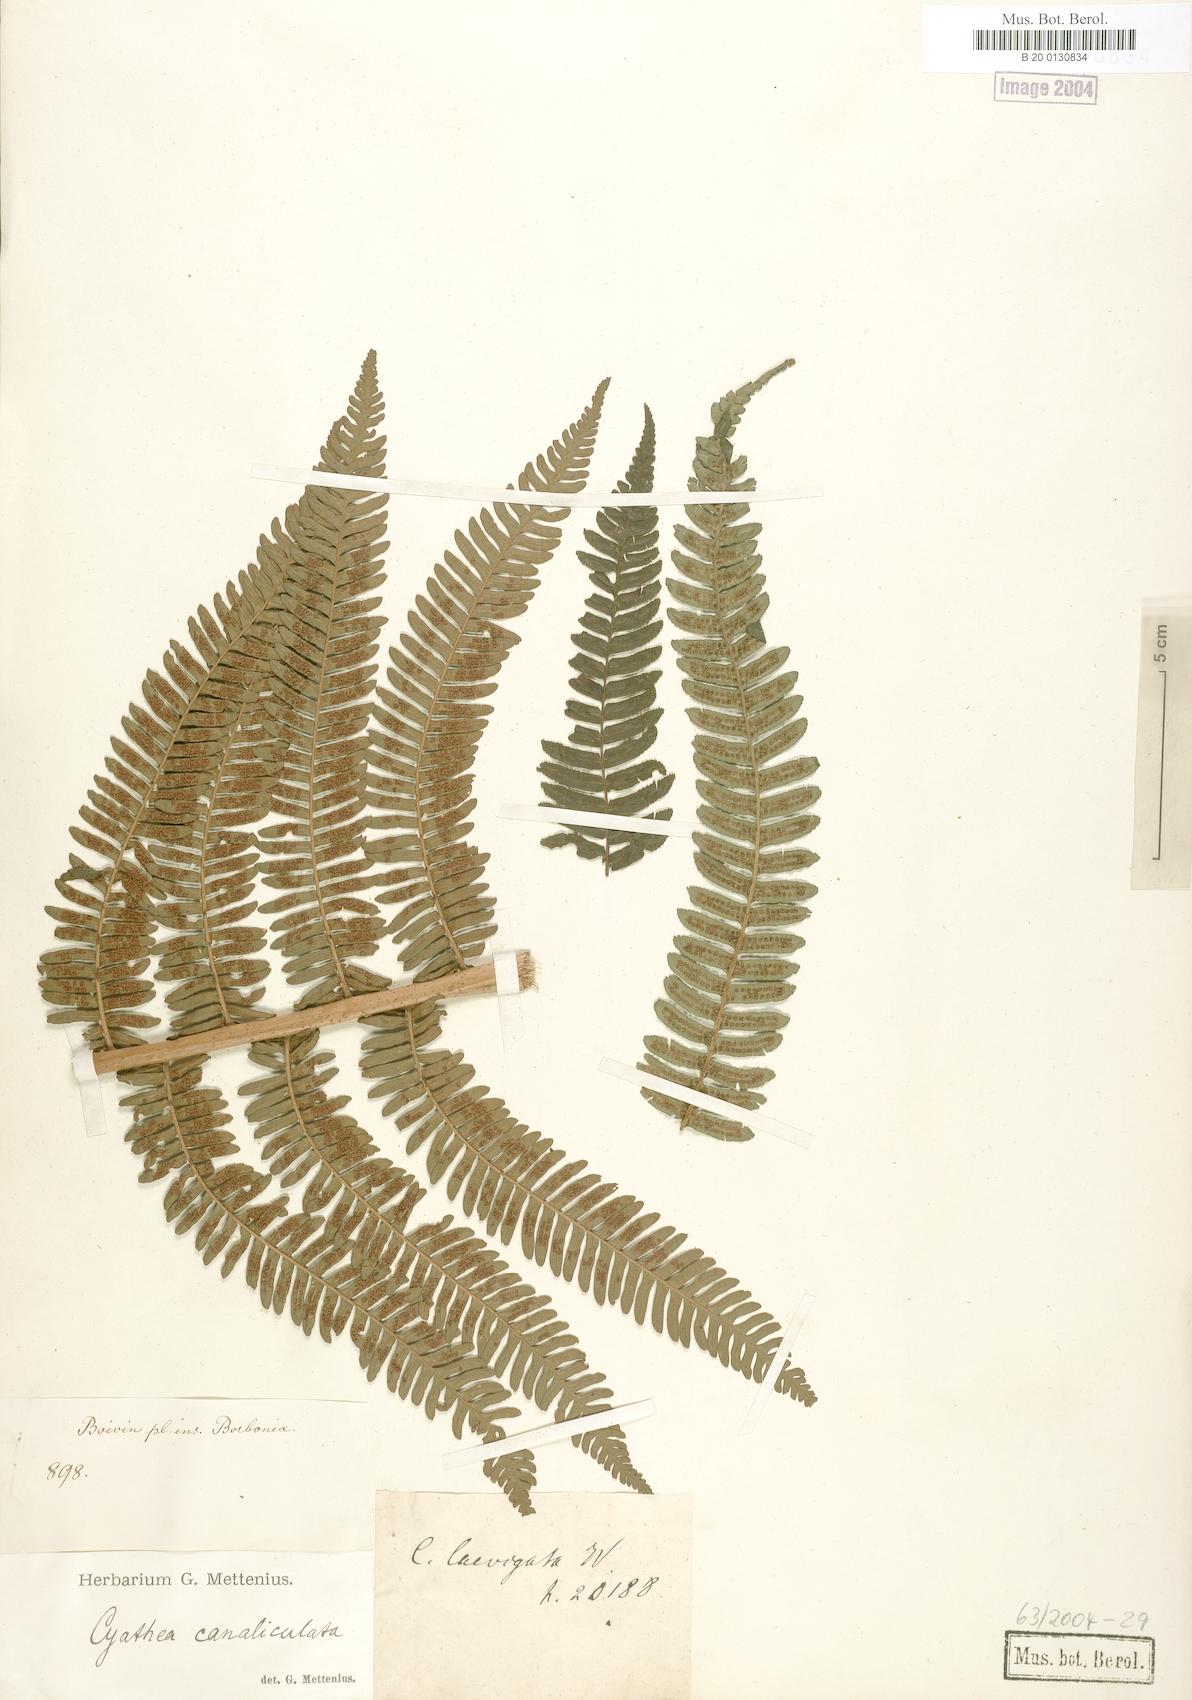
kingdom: Plantae
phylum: Tracheophyta
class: Polypodiopsida
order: Cyatheales
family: Cyatheaceae
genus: Alsophila
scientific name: Alsophila celsa
